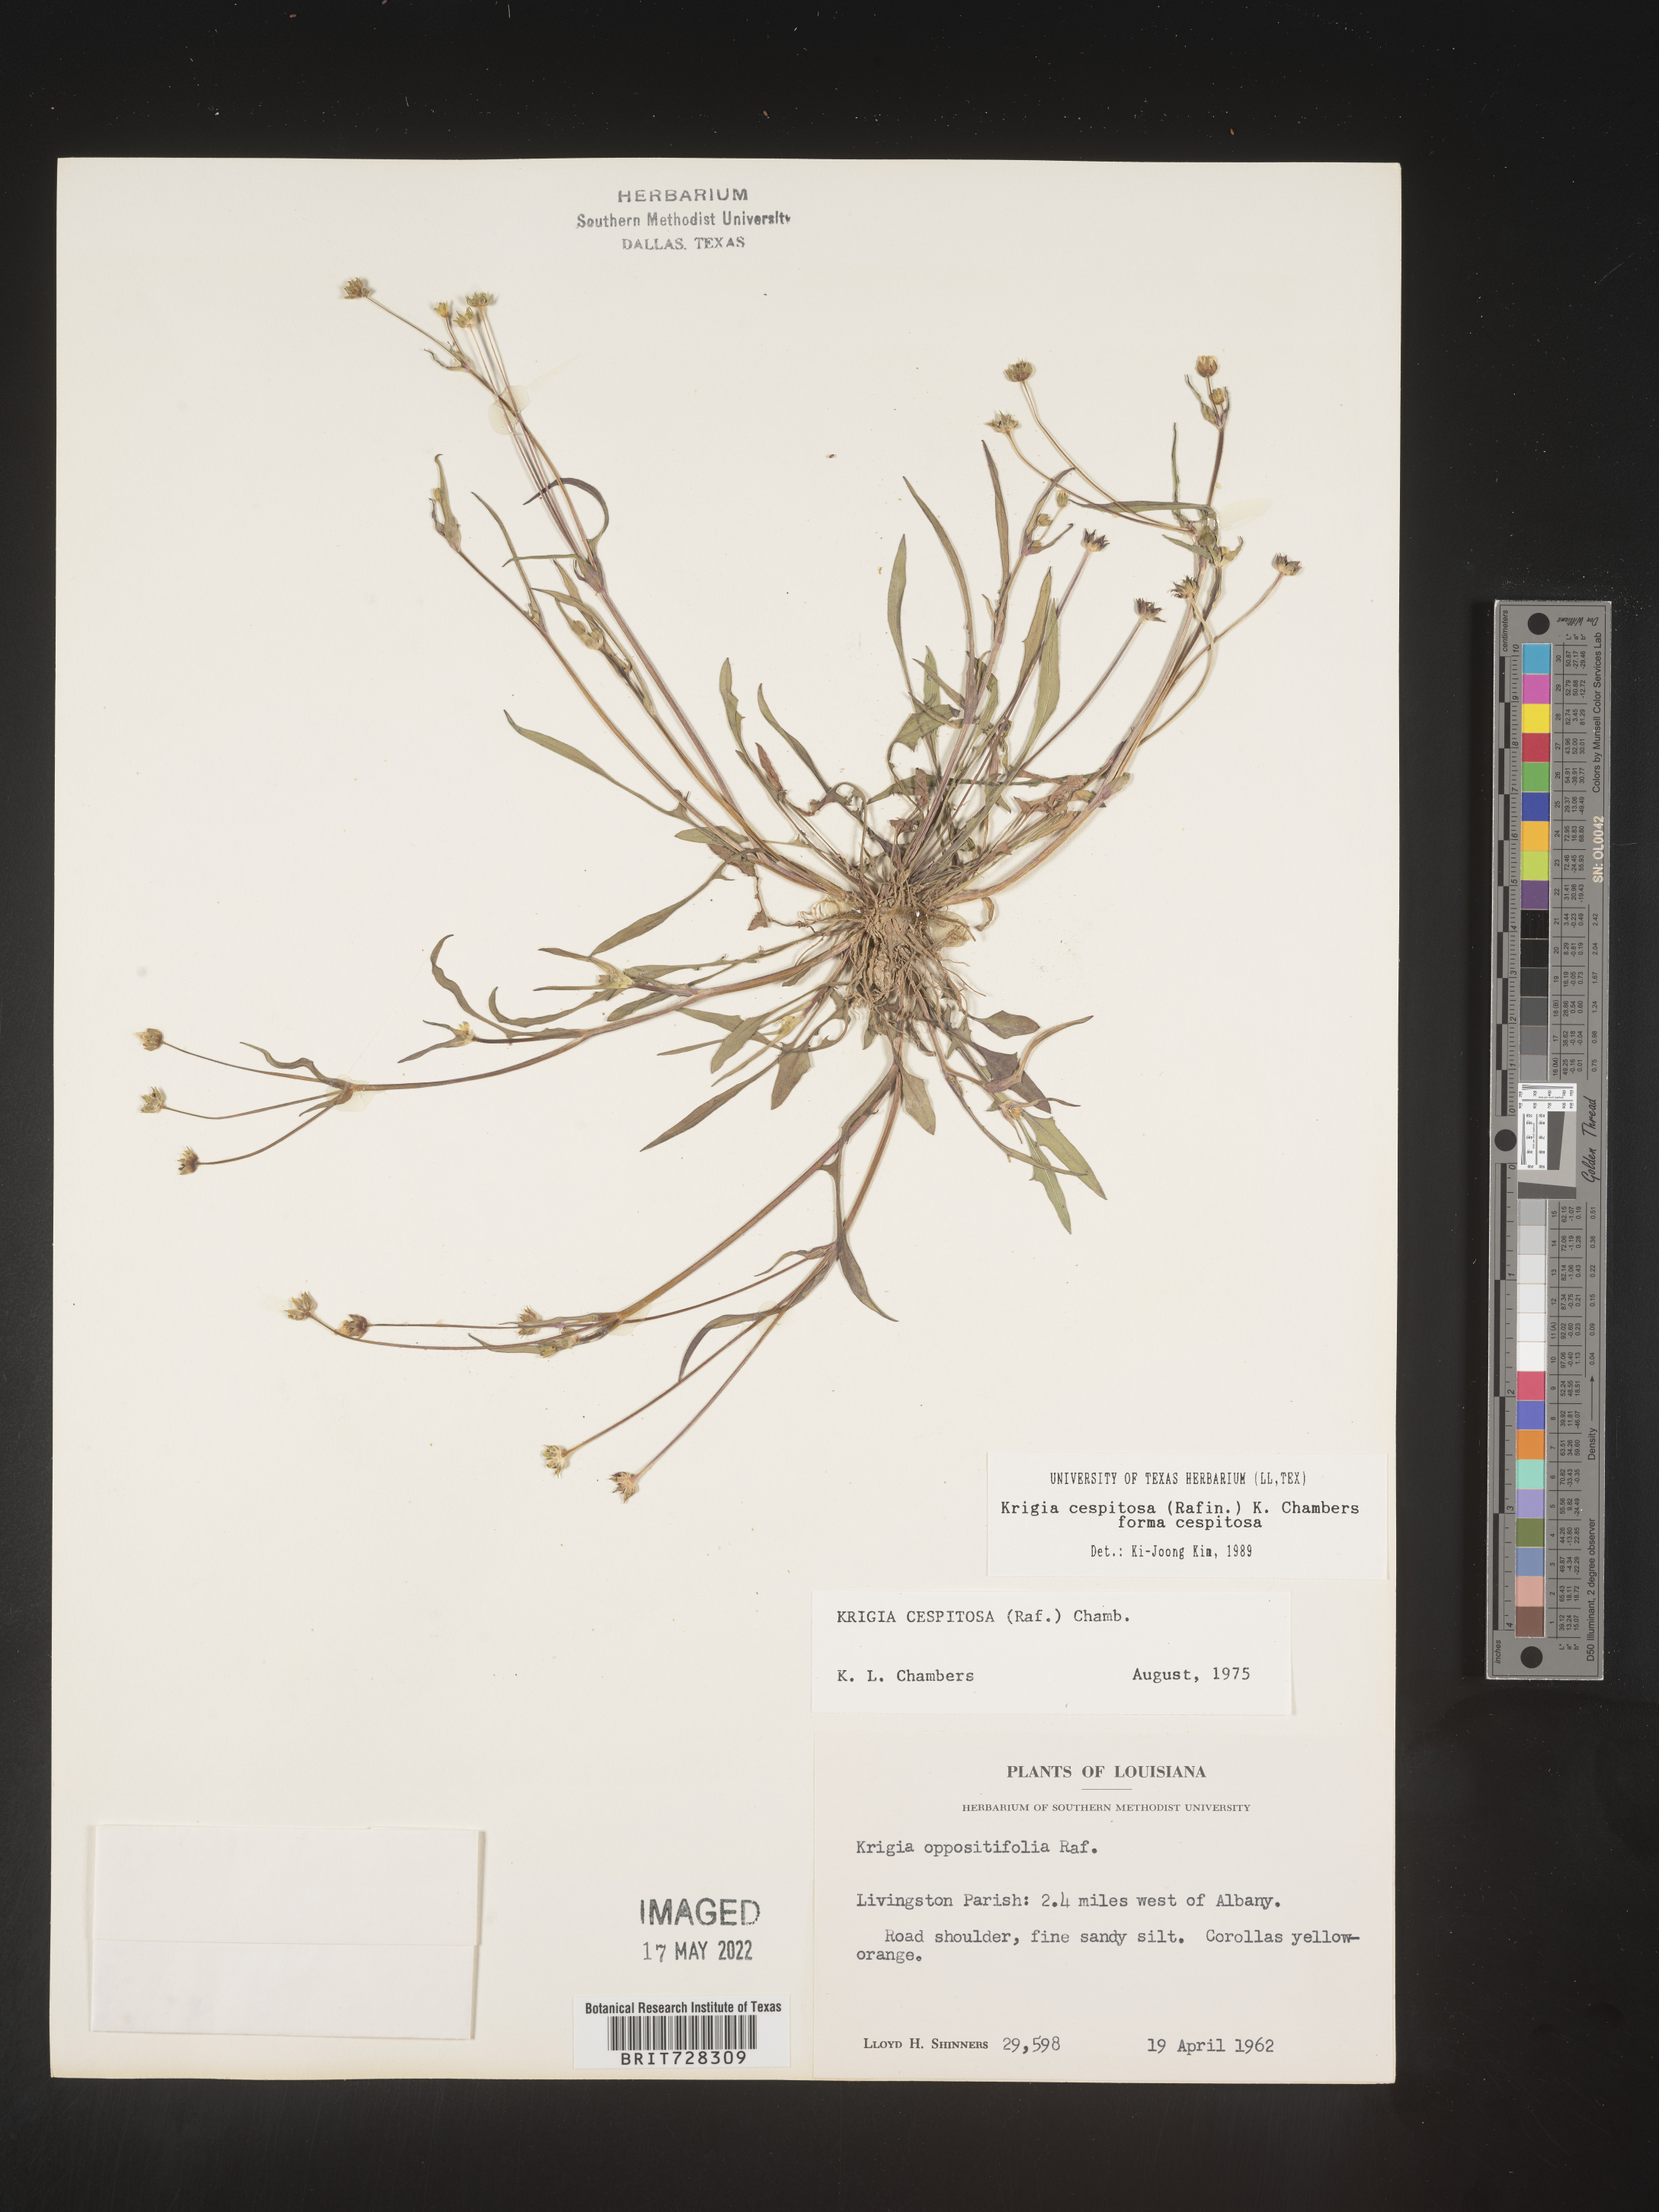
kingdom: Plantae
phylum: Tracheophyta
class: Magnoliopsida
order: Asterales
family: Asteraceae
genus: Krigia
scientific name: Krigia caespitosa
